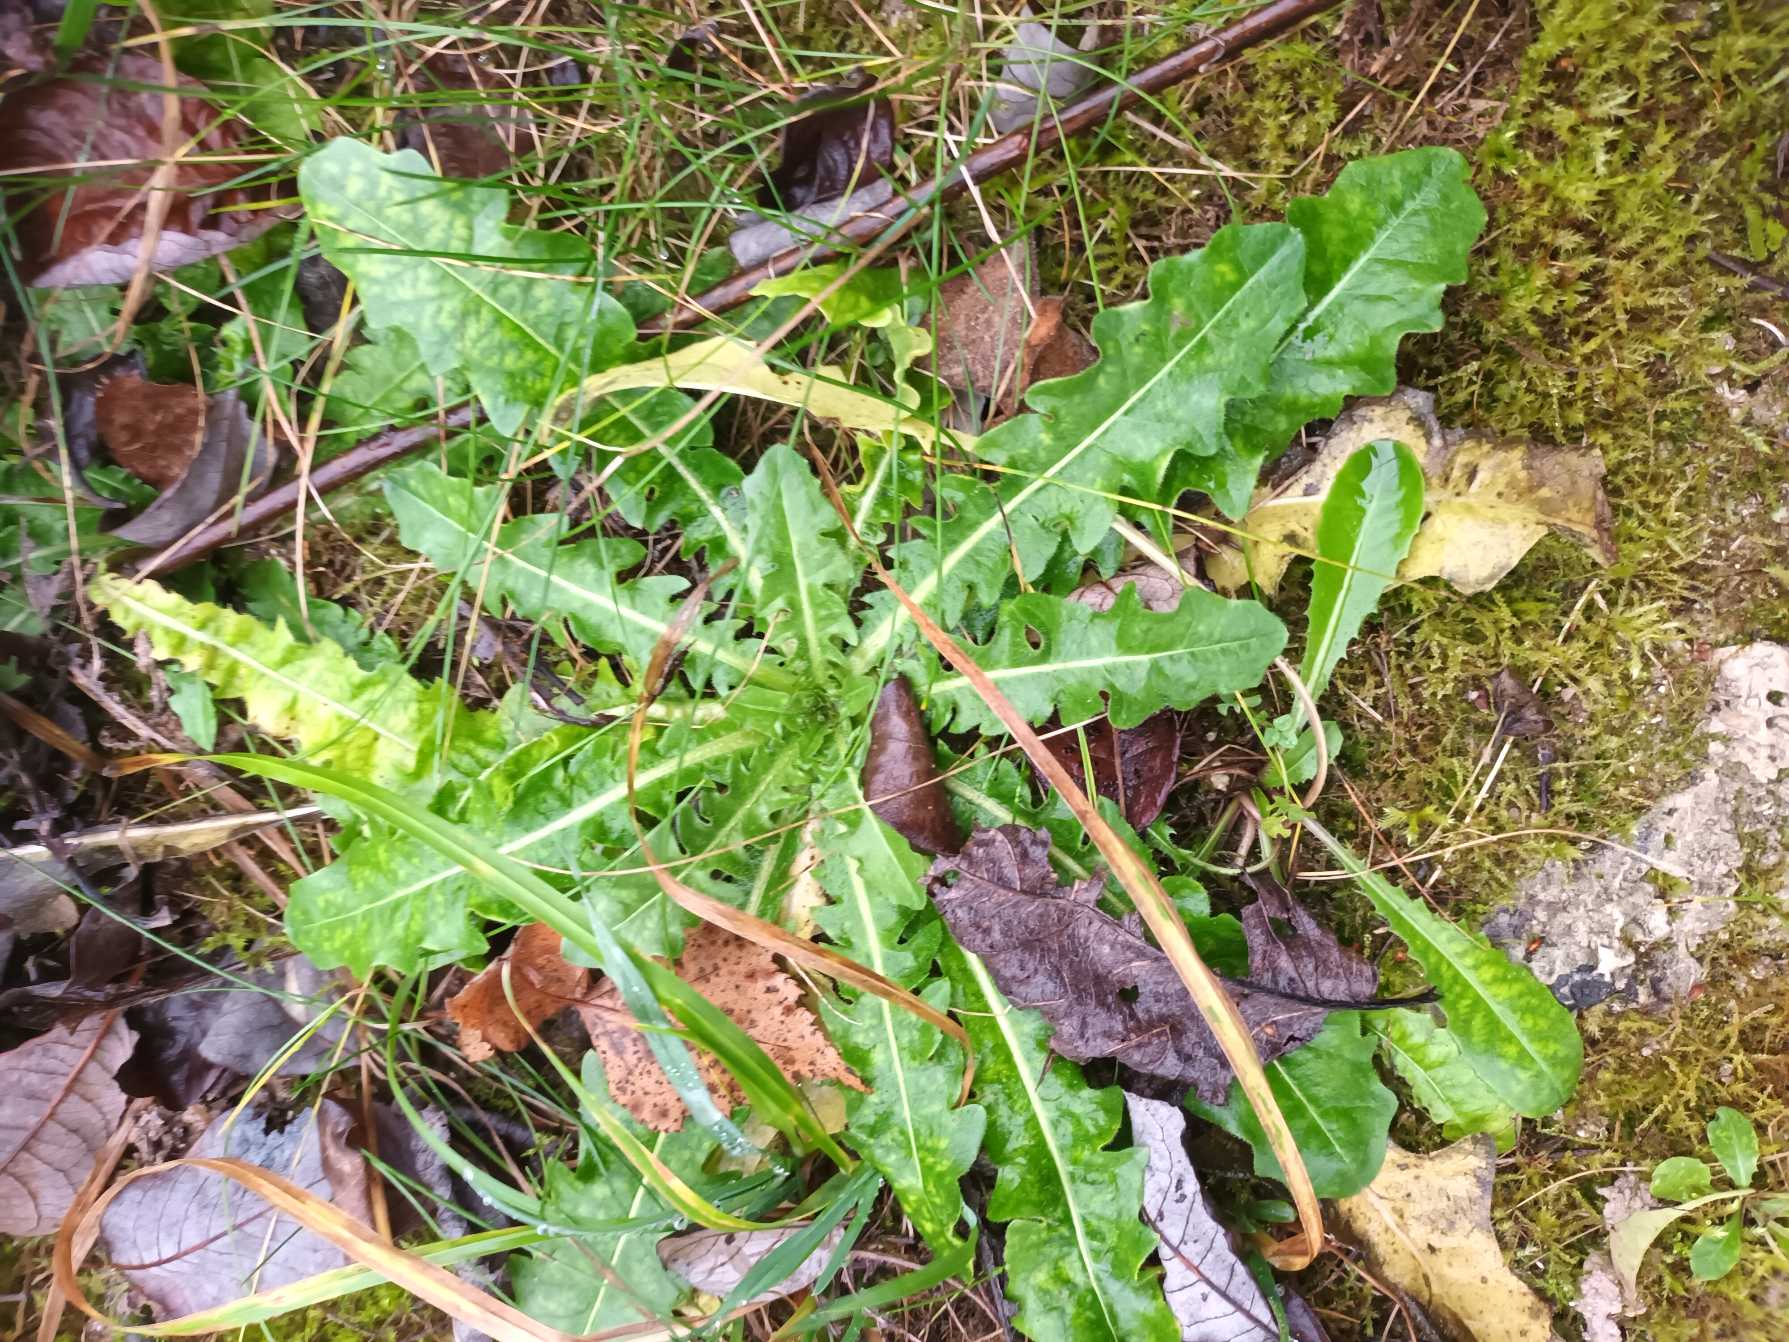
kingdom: Plantae
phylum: Tracheophyta
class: Magnoliopsida
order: Asterales
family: Asteraceae
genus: Taraxacum
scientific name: Taraxacum
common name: Mælkebøtteslægten
